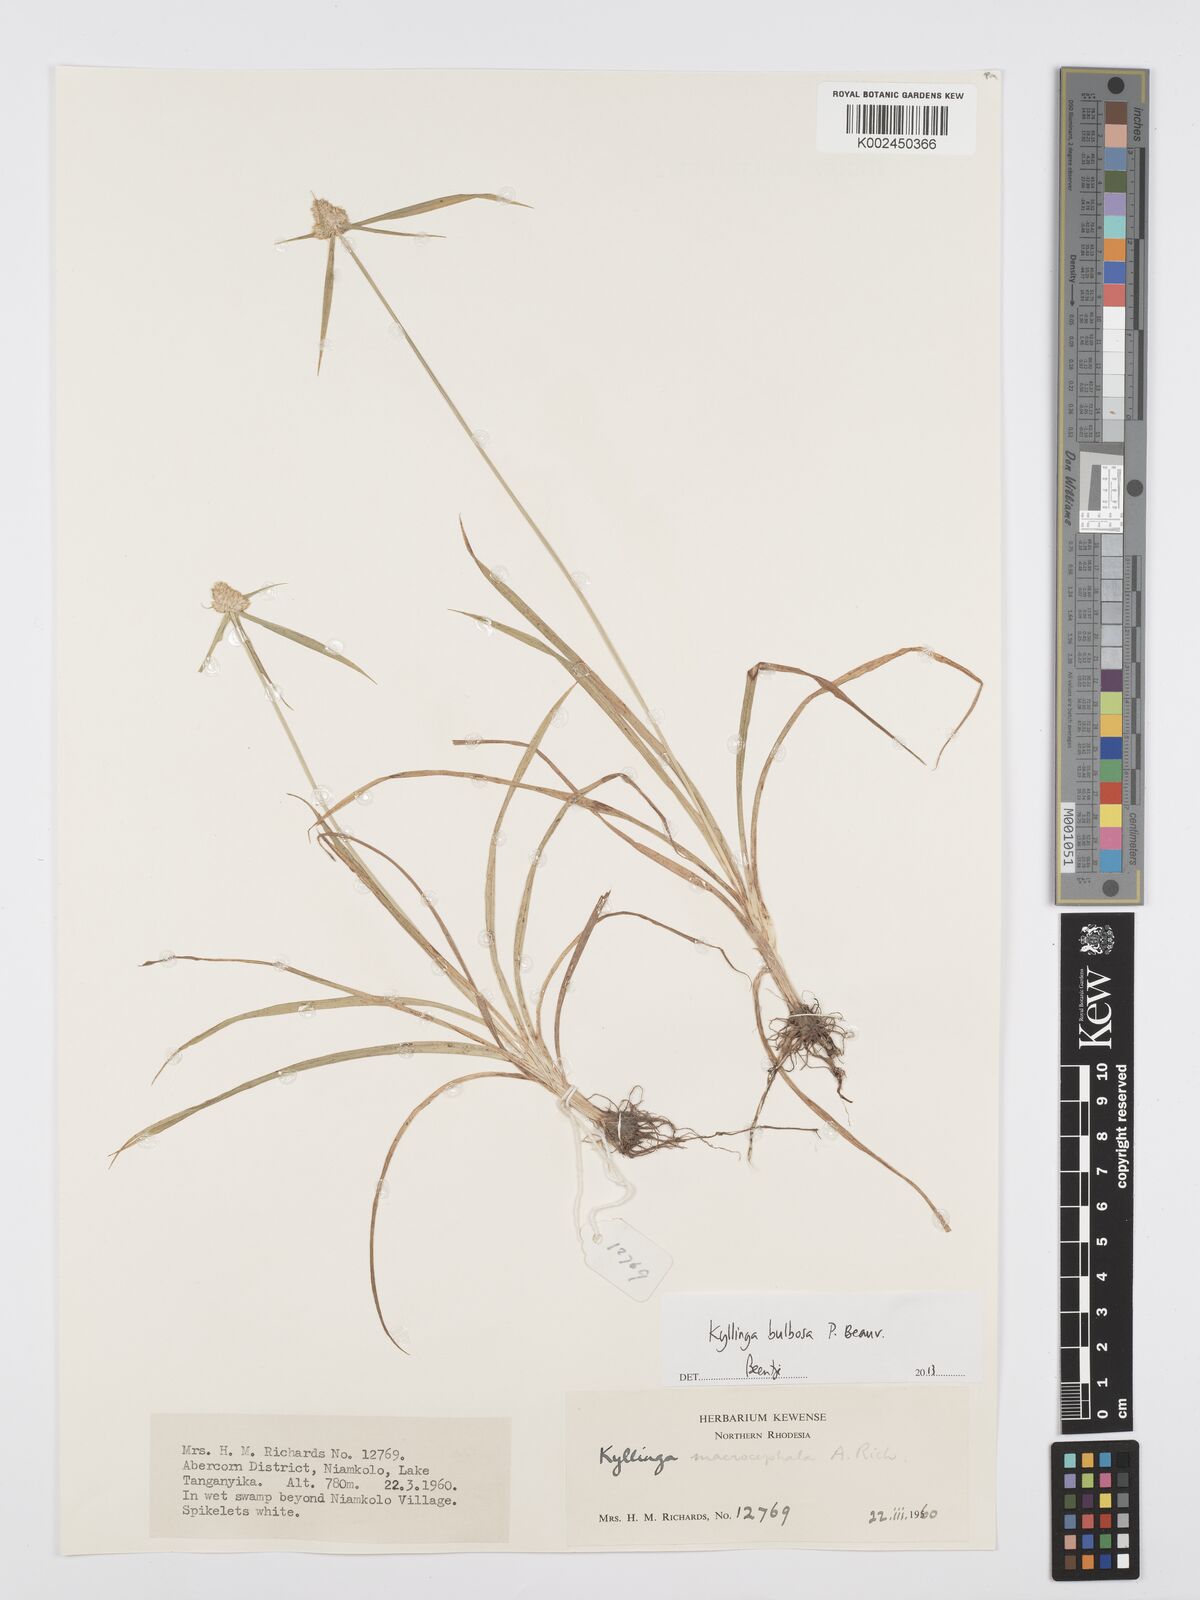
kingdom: Plantae
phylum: Tracheophyta
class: Liliopsida
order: Poales
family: Cyperaceae
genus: Cyperus
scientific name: Cyperus
